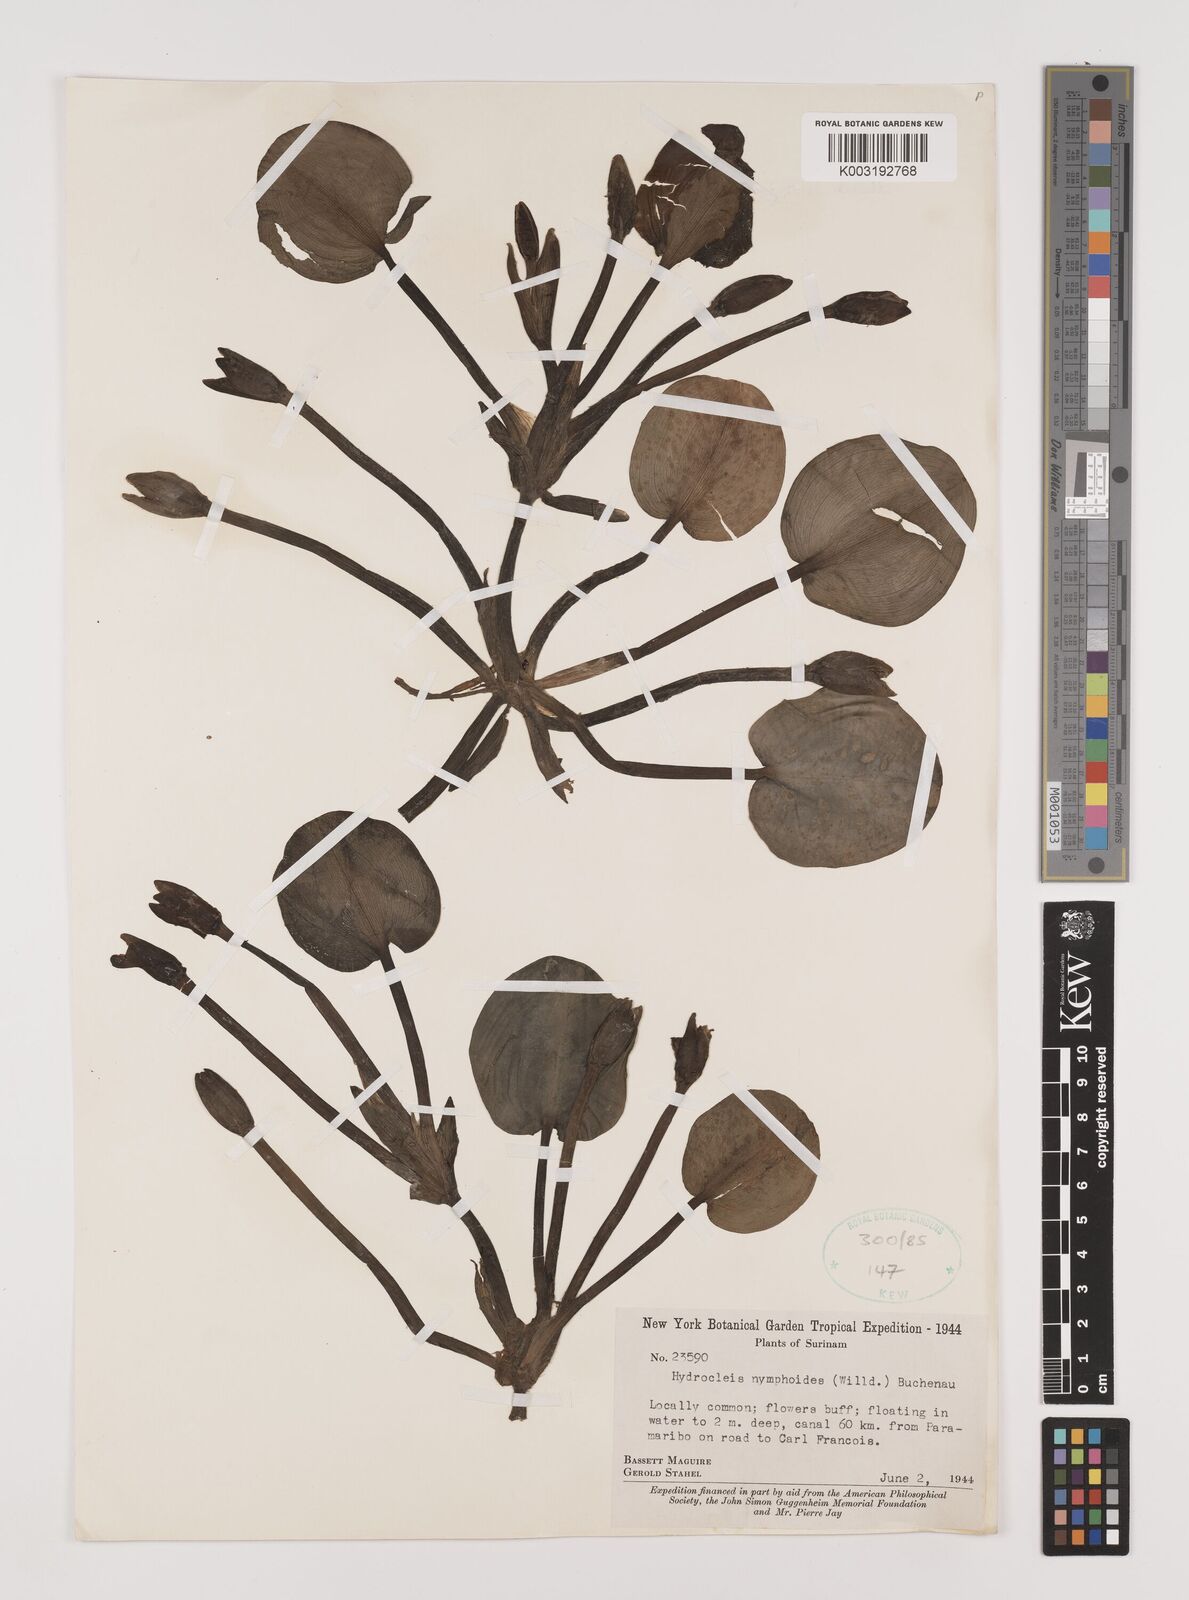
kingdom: Plantae
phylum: Tracheophyta
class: Liliopsida
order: Alismatales
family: Alismataceae
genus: Hydrocleys
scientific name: Hydrocleys nymphoides
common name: Water-poppy
